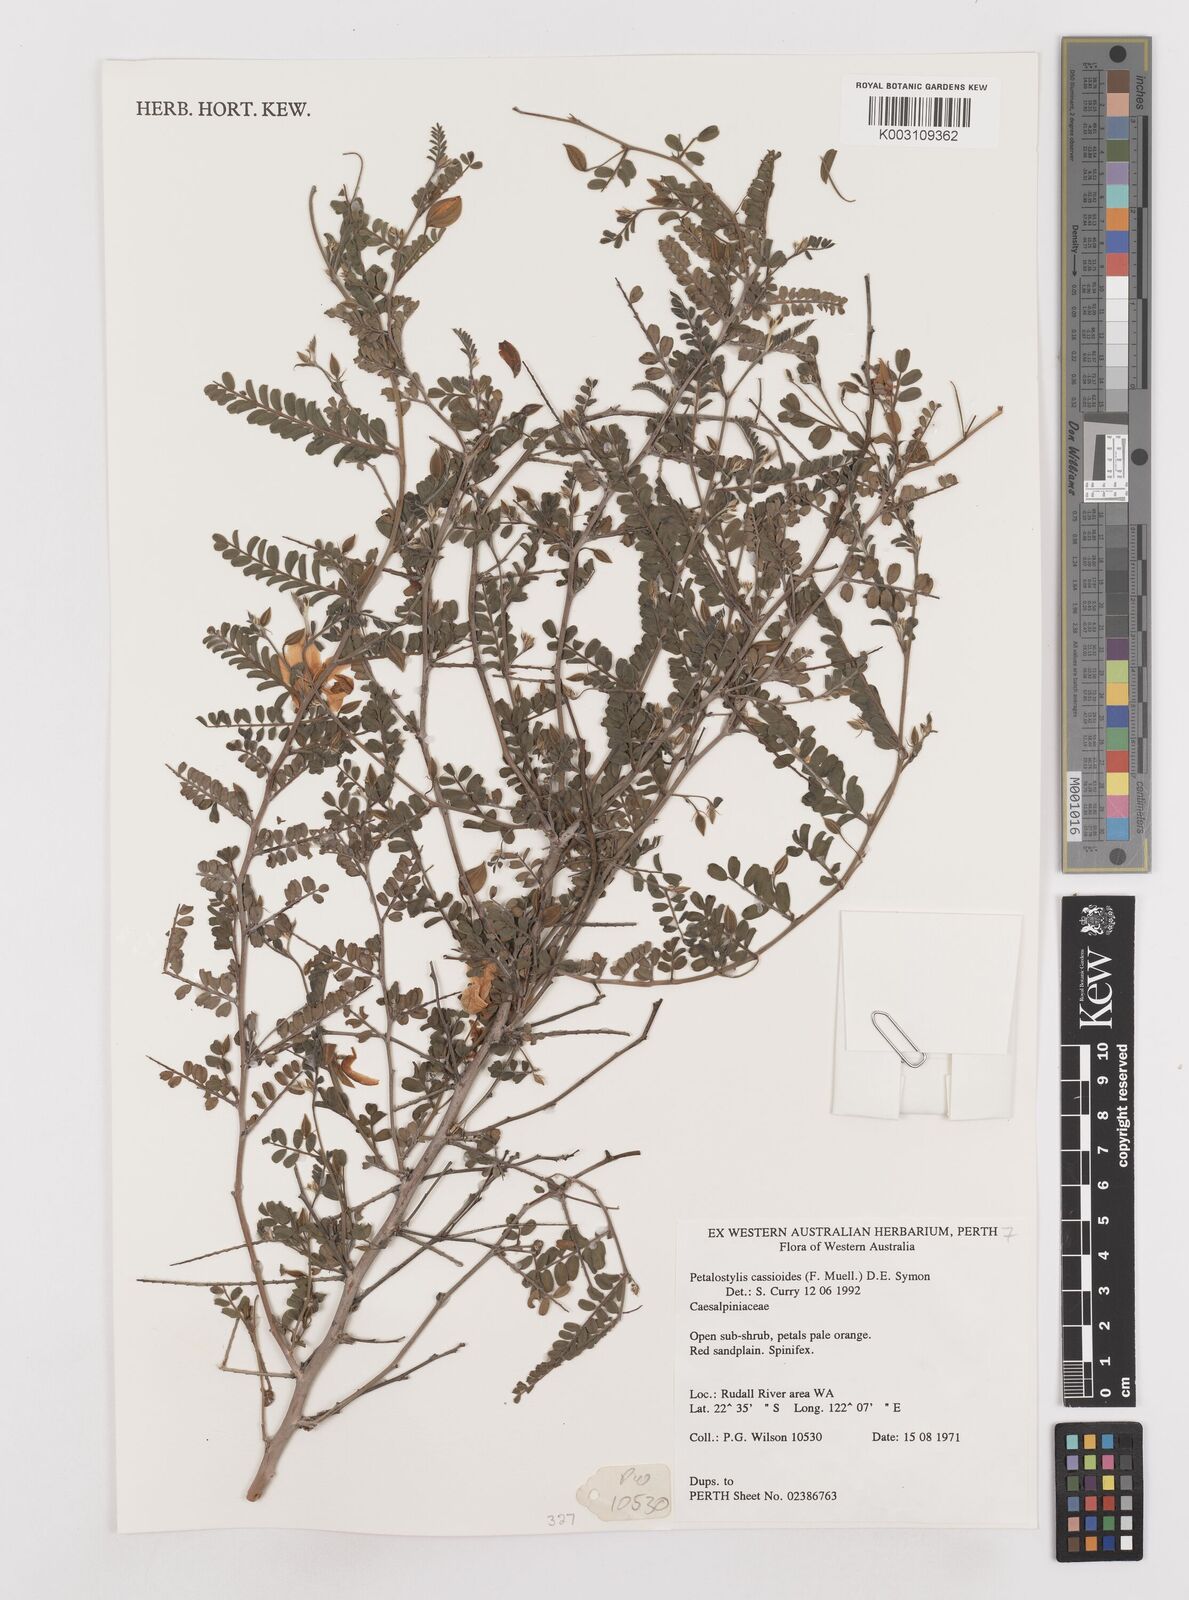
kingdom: Plantae
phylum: Tracheophyta
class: Magnoliopsida
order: Fabales
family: Fabaceae
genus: Petalostylis
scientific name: Petalostylis cassioides
